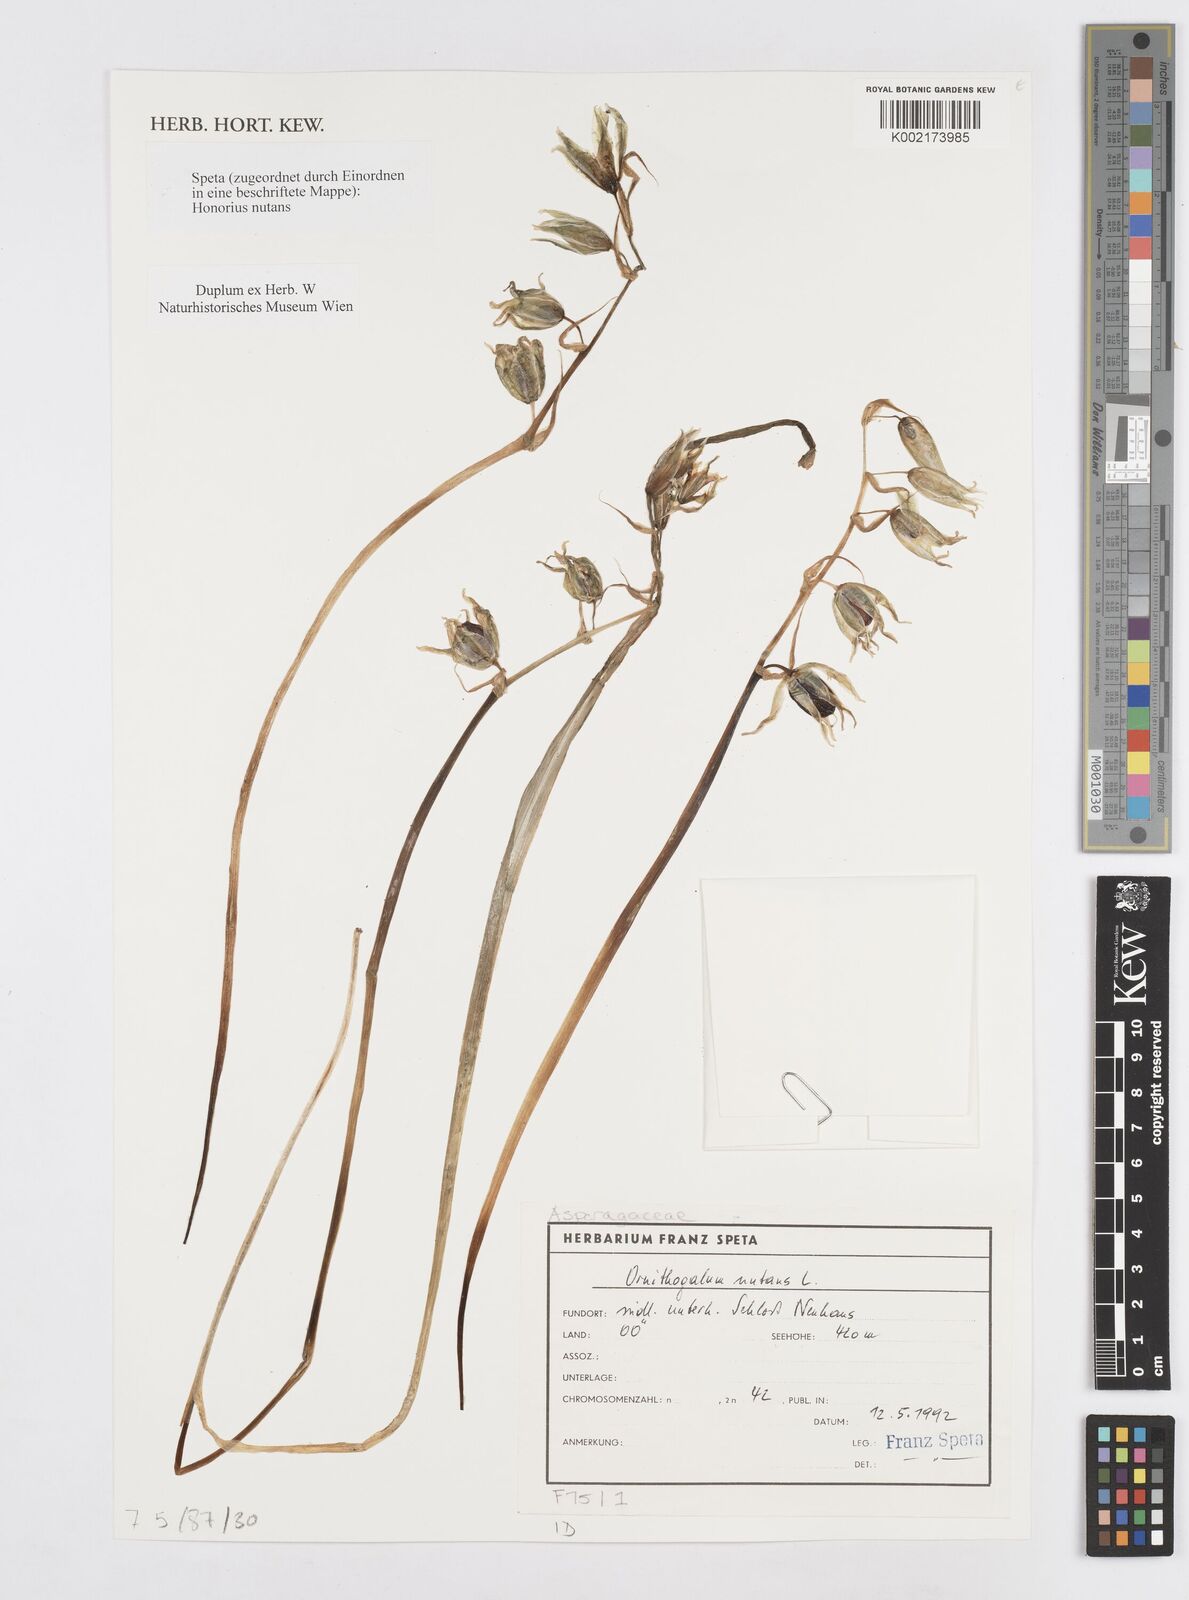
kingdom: Plantae
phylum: Tracheophyta
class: Liliopsida
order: Asparagales
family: Asparagaceae
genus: Ornithogalum
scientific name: Ornithogalum nutans
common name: Drooping star-of-bethlehem
